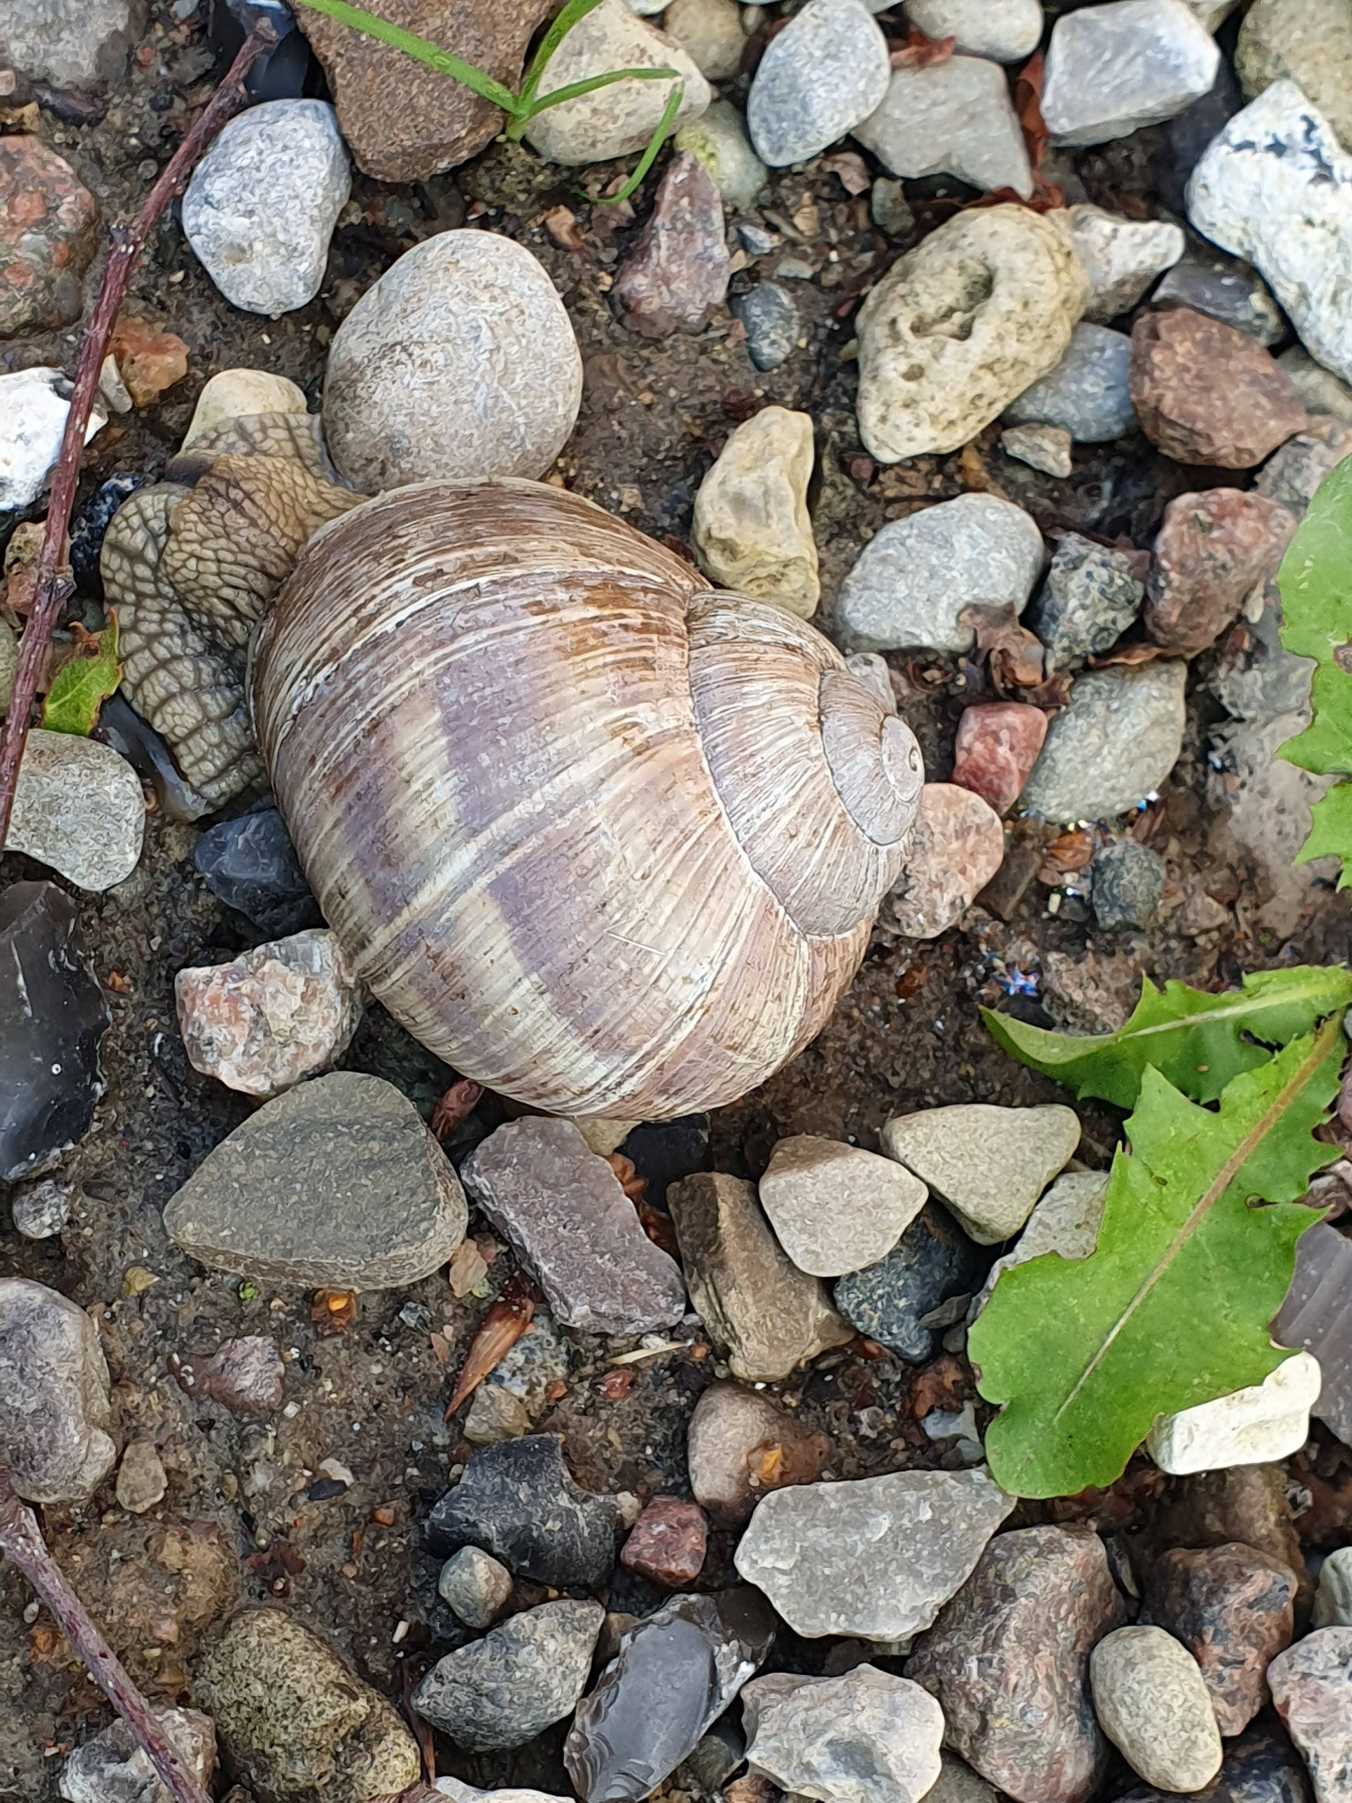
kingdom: Animalia
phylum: Mollusca
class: Gastropoda
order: Stylommatophora
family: Helicidae
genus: Helix
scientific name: Helix pomatia
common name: Vinbjergsnegl
